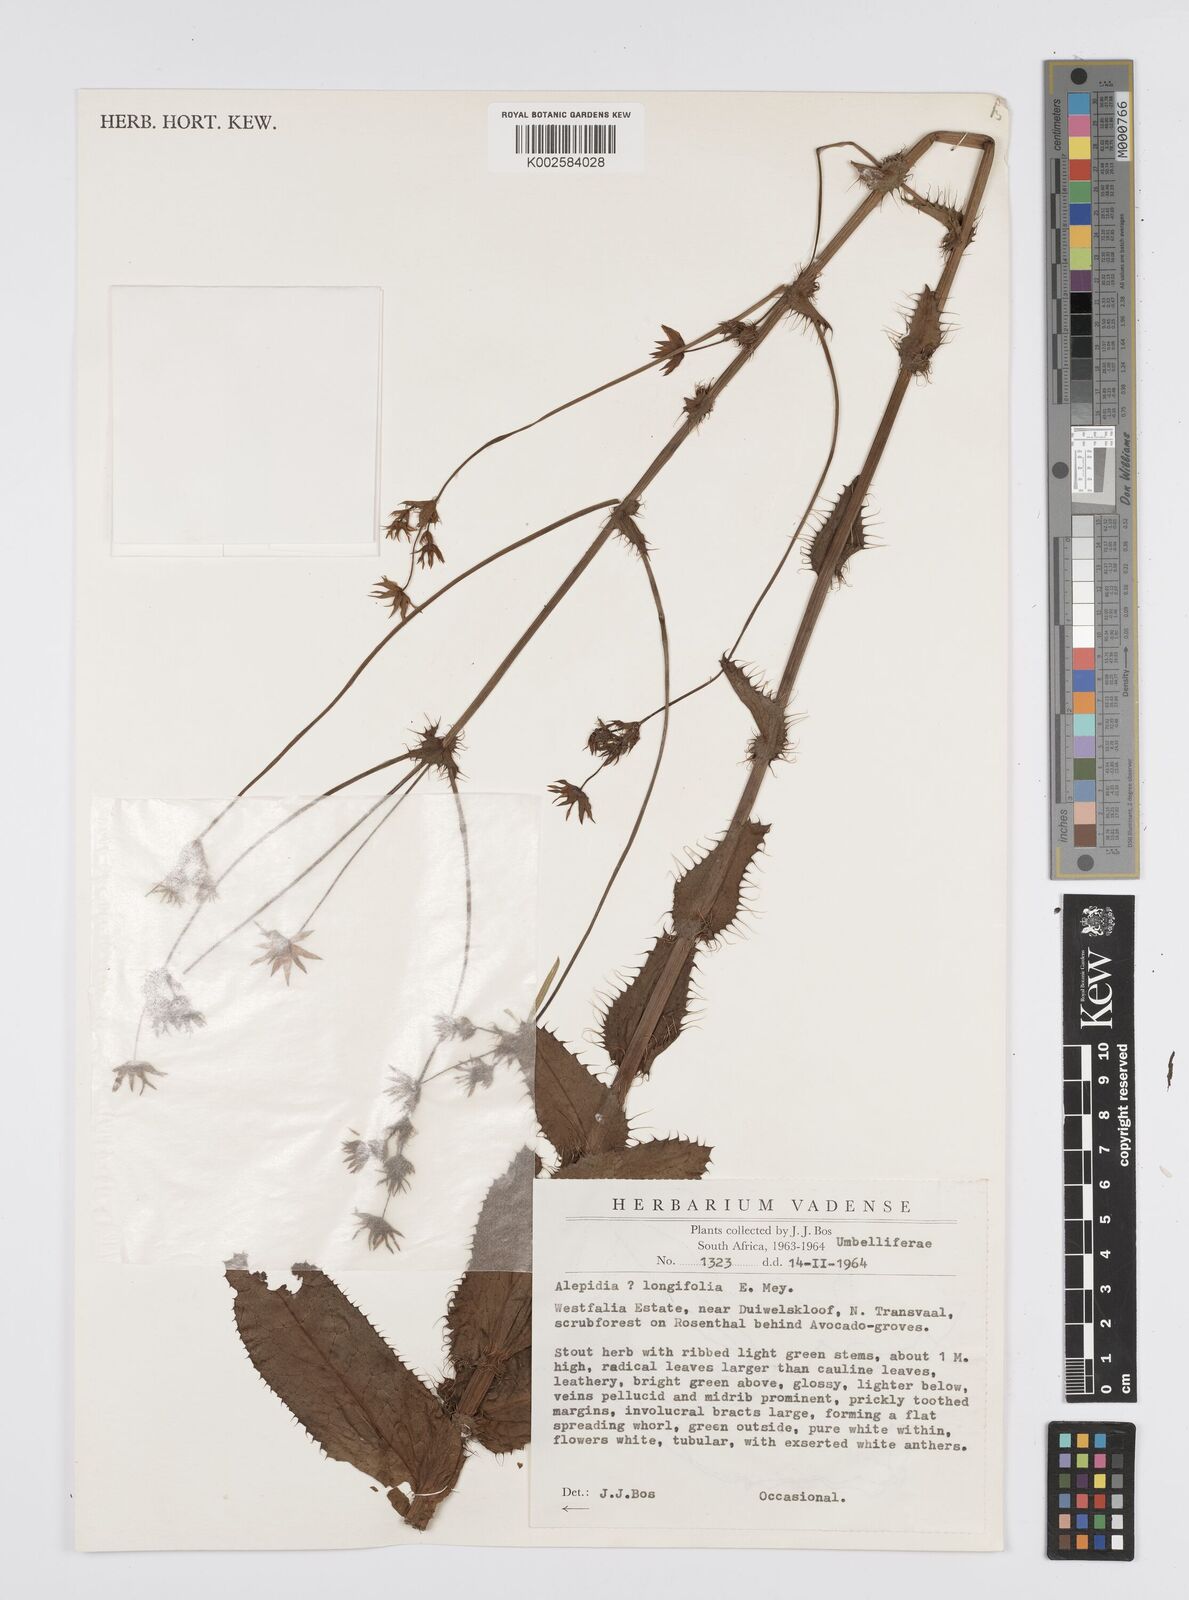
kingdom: Plantae
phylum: Tracheophyta
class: Magnoliopsida
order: Apiales
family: Apiaceae
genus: Alepidea
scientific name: Alepidea
